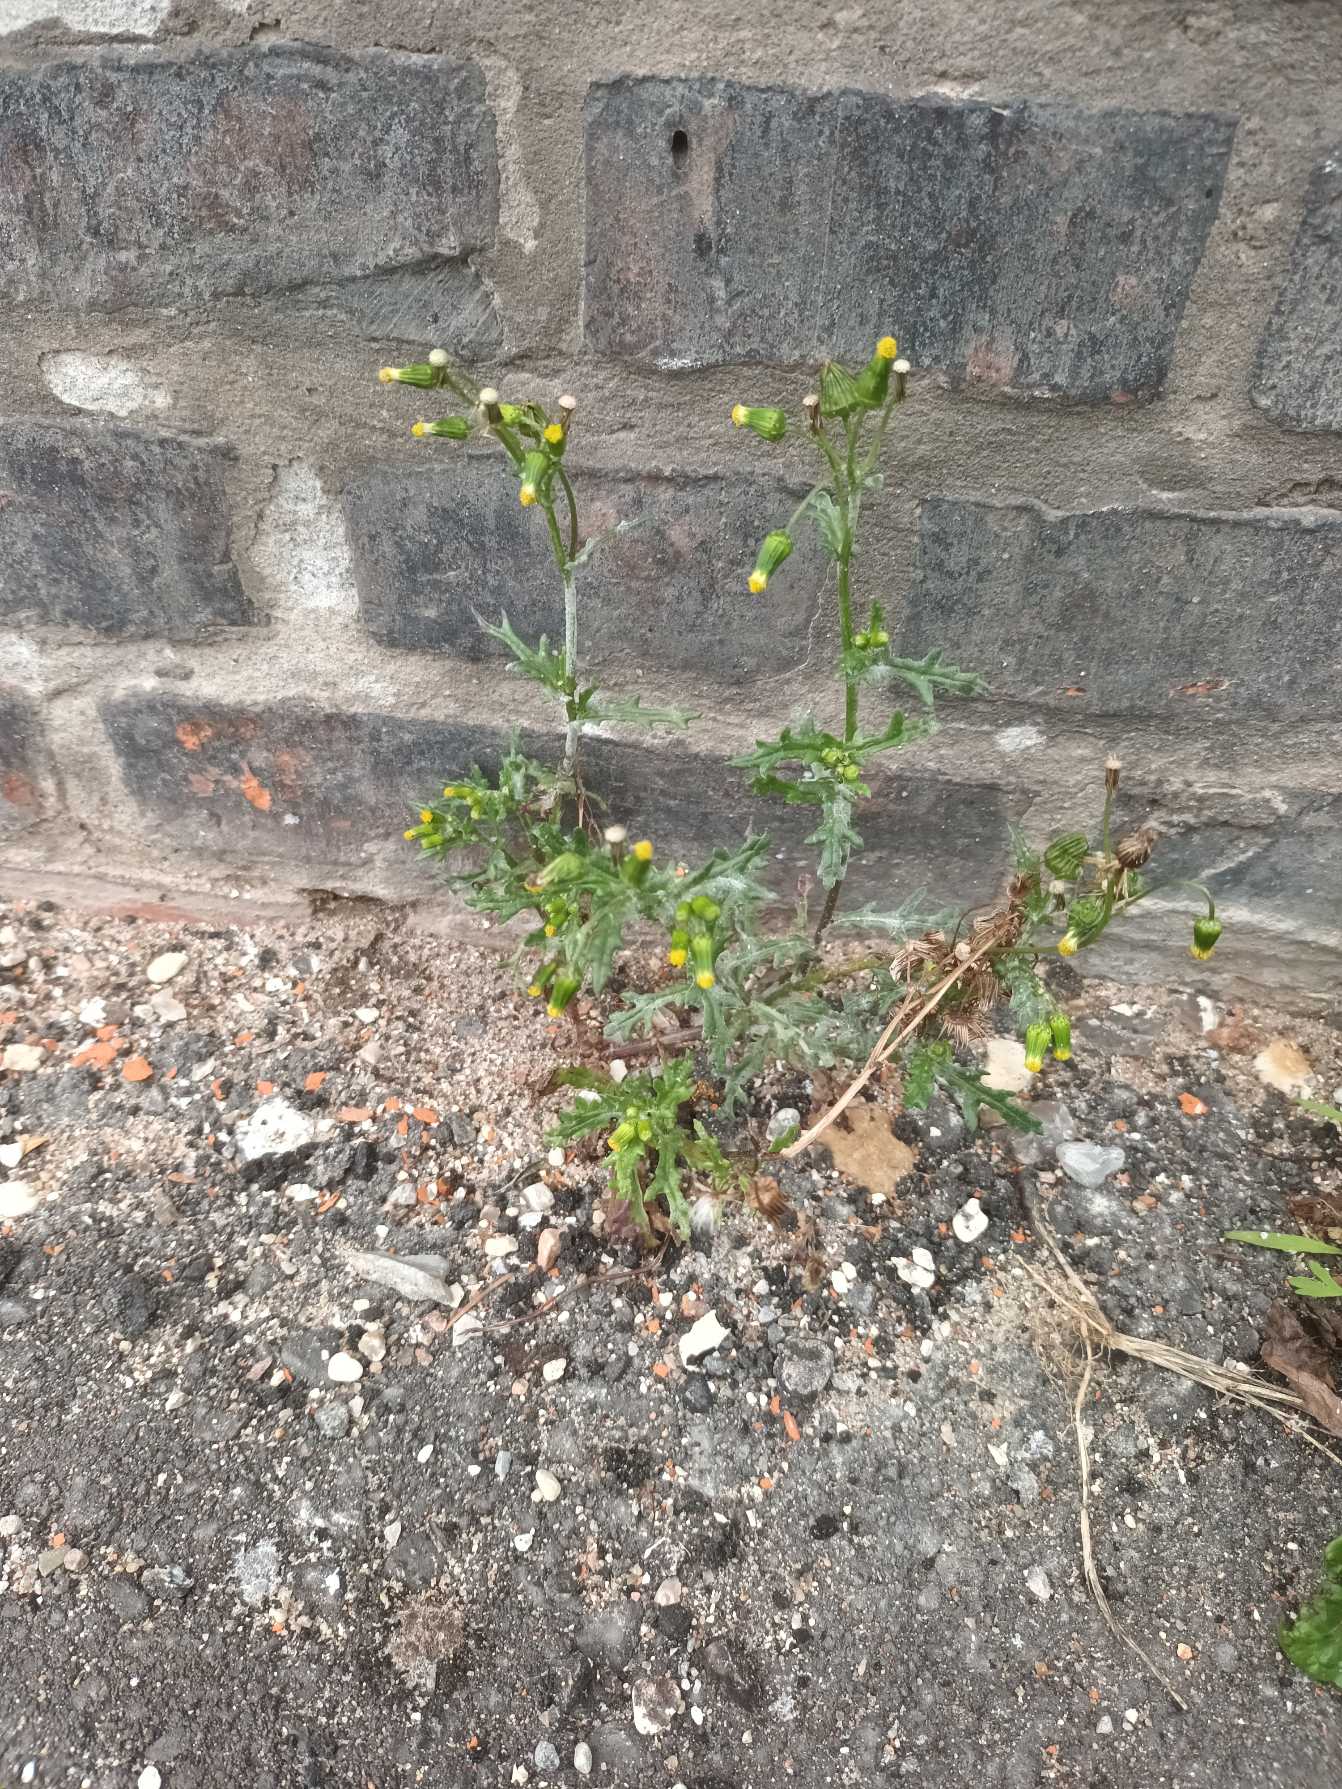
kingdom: Plantae
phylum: Tracheophyta
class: Magnoliopsida
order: Asterales
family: Asteraceae
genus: Senecio
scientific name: Senecio vulgaris
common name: Almindelig brandbæger
